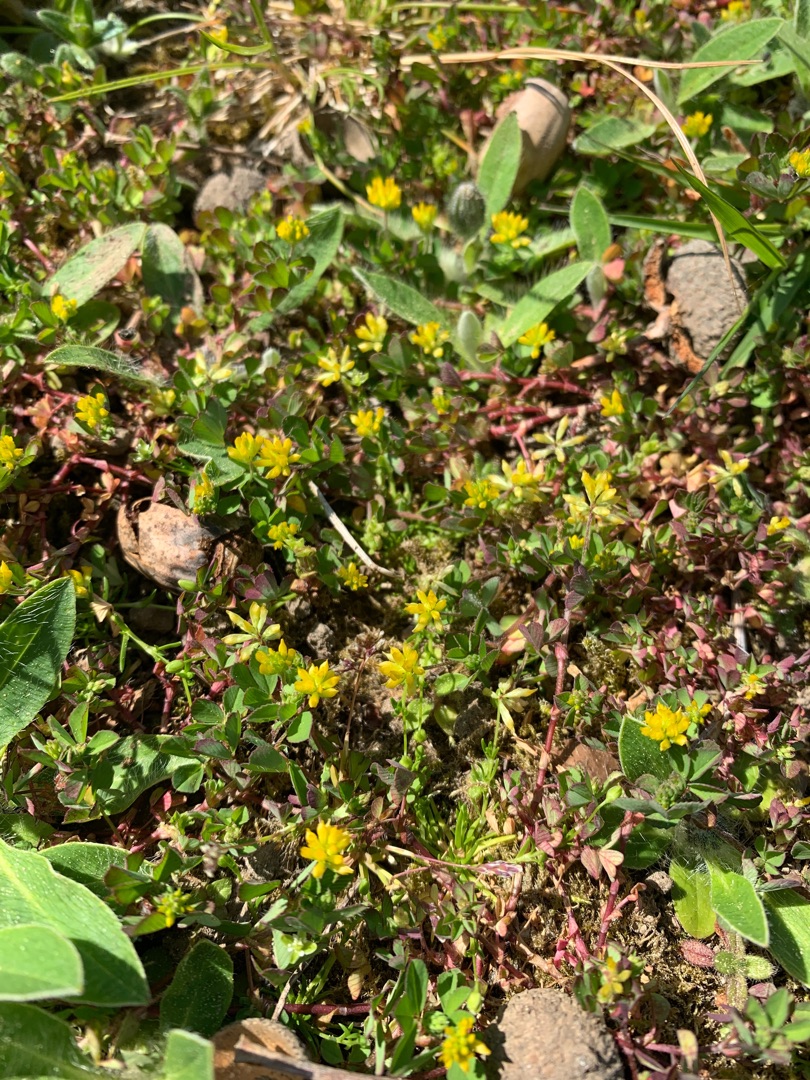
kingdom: Plantae
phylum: Tracheophyta
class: Magnoliopsida
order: Fabales
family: Fabaceae
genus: Trifolium
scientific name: Trifolium dubium
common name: Fin kløver
